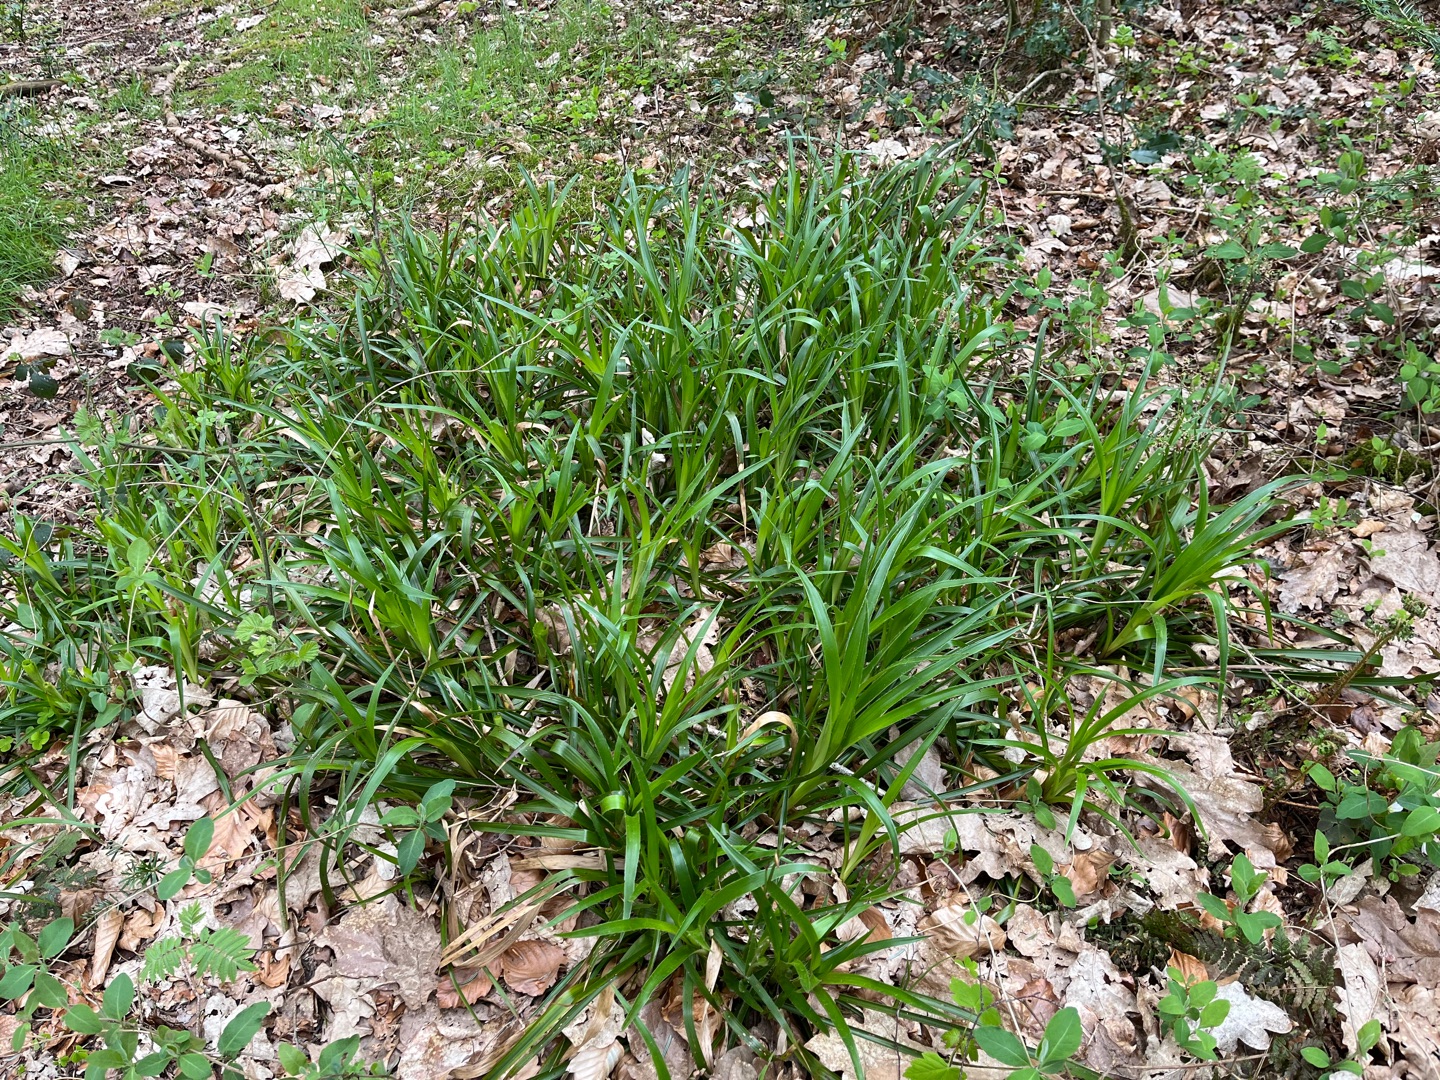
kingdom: Plantae
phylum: Tracheophyta
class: Liliopsida
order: Poales
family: Juncaceae
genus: Luzula
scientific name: Luzula sylvatica
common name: Stor frytle
